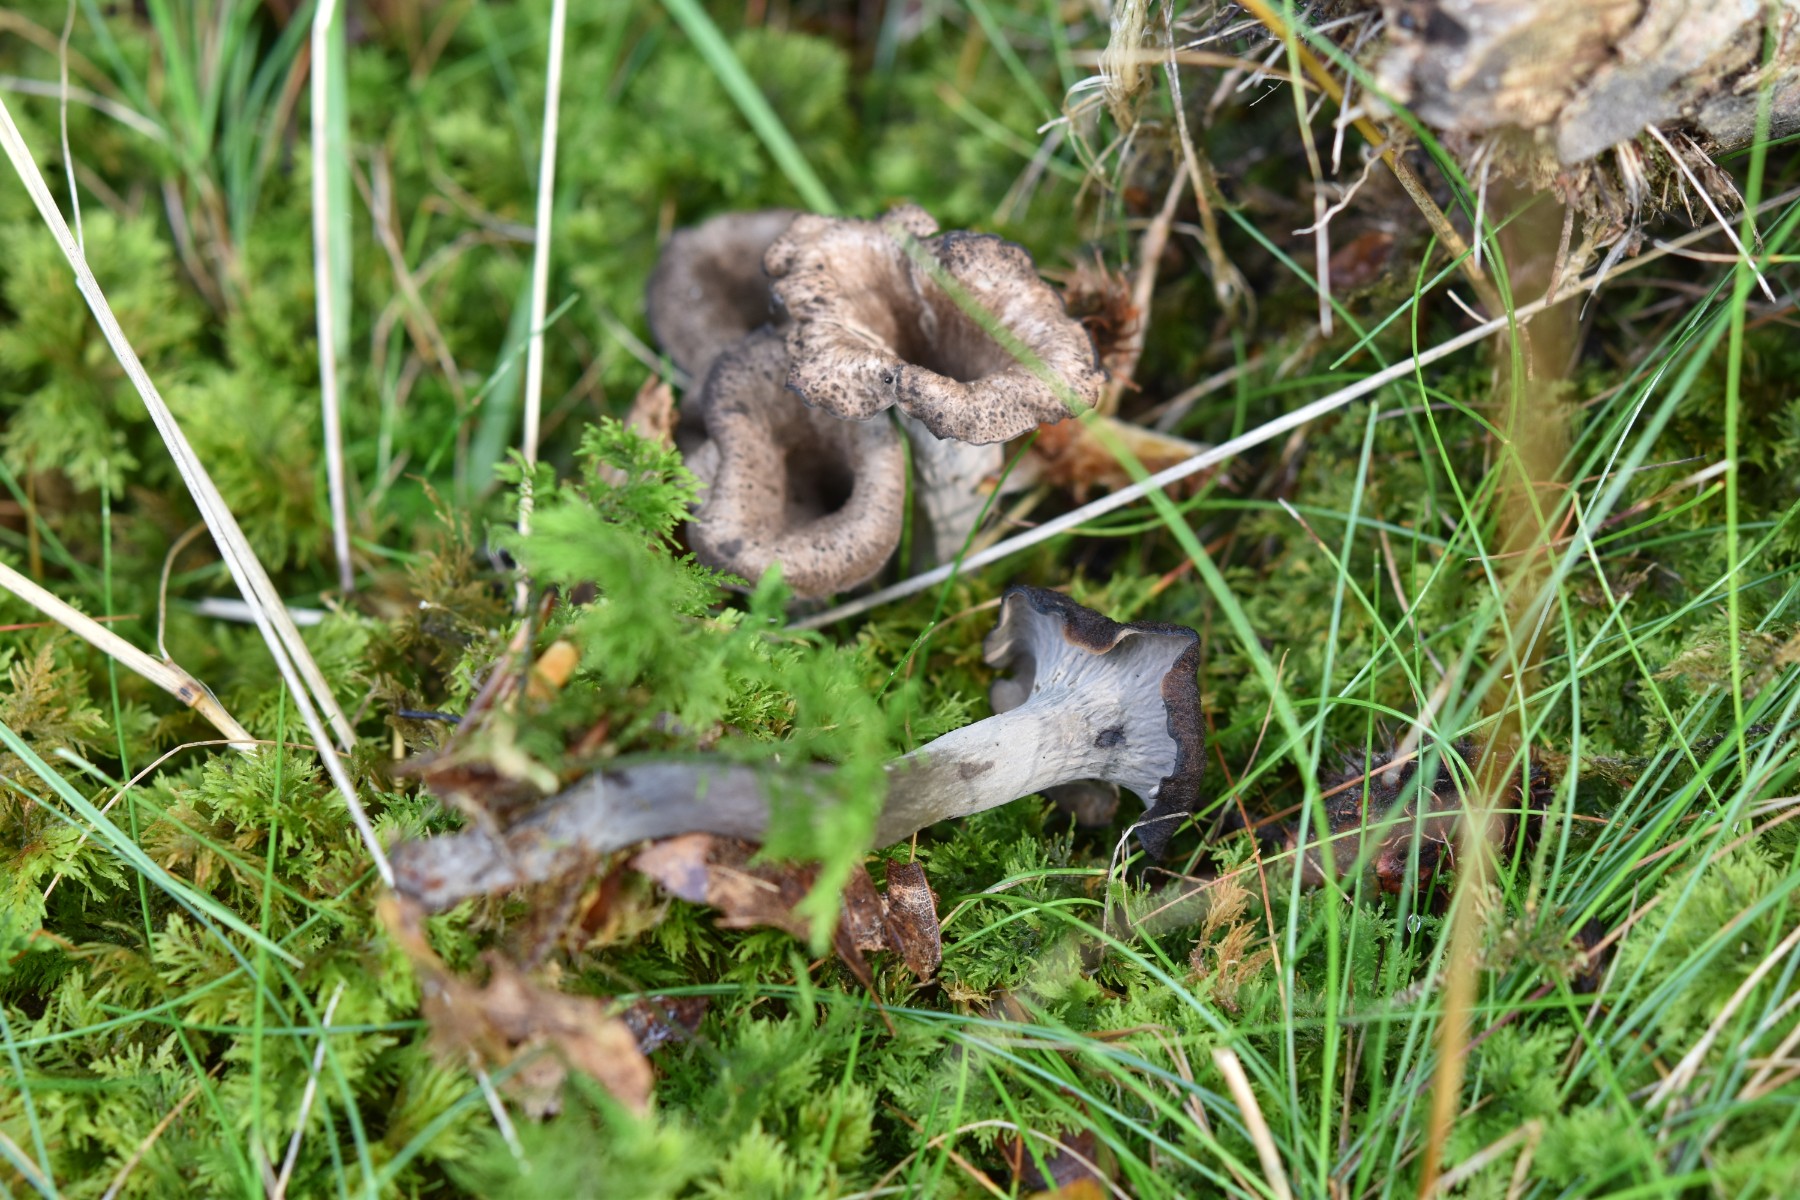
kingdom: Fungi
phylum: Basidiomycota
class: Agaricomycetes
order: Cantharellales
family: Hydnaceae
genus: Craterellus
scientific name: Craterellus cornucopioides
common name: trompetsvamp
